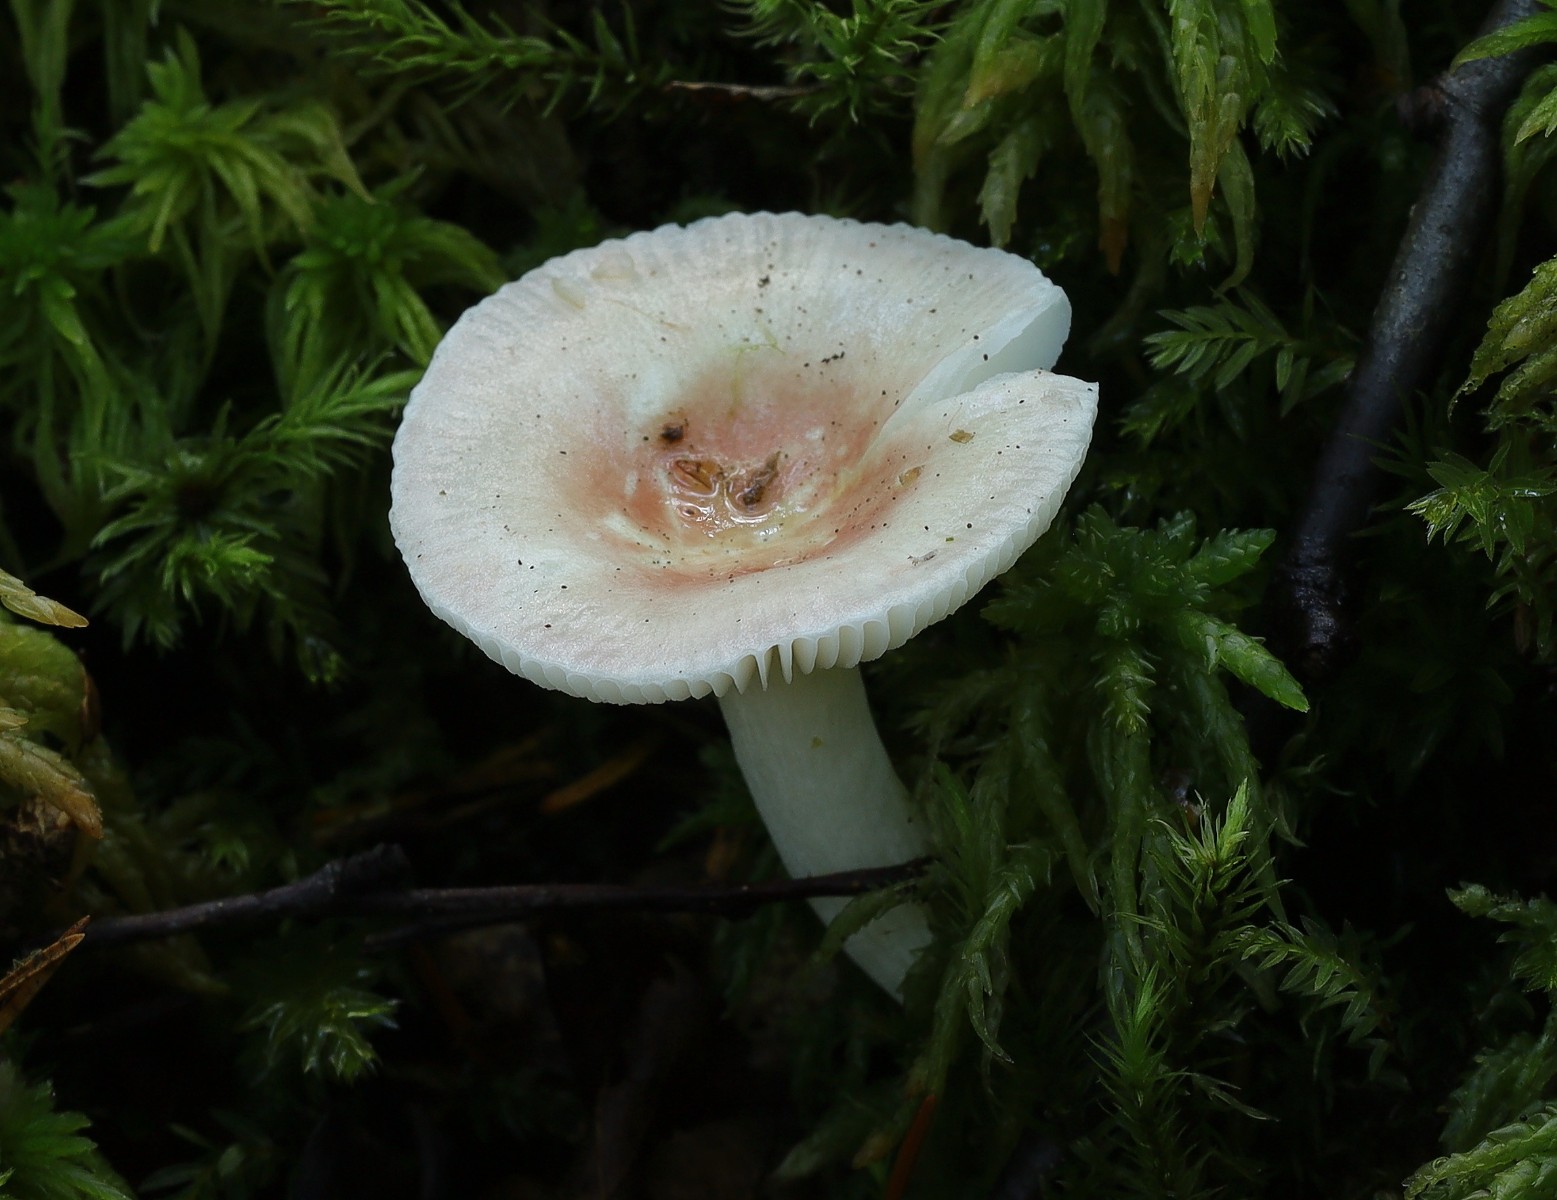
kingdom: Fungi
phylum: Basidiomycota
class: Agaricomycetes
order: Russulales
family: Russulaceae
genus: Russula
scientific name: Russula betularum
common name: bleg gift-skørhat
